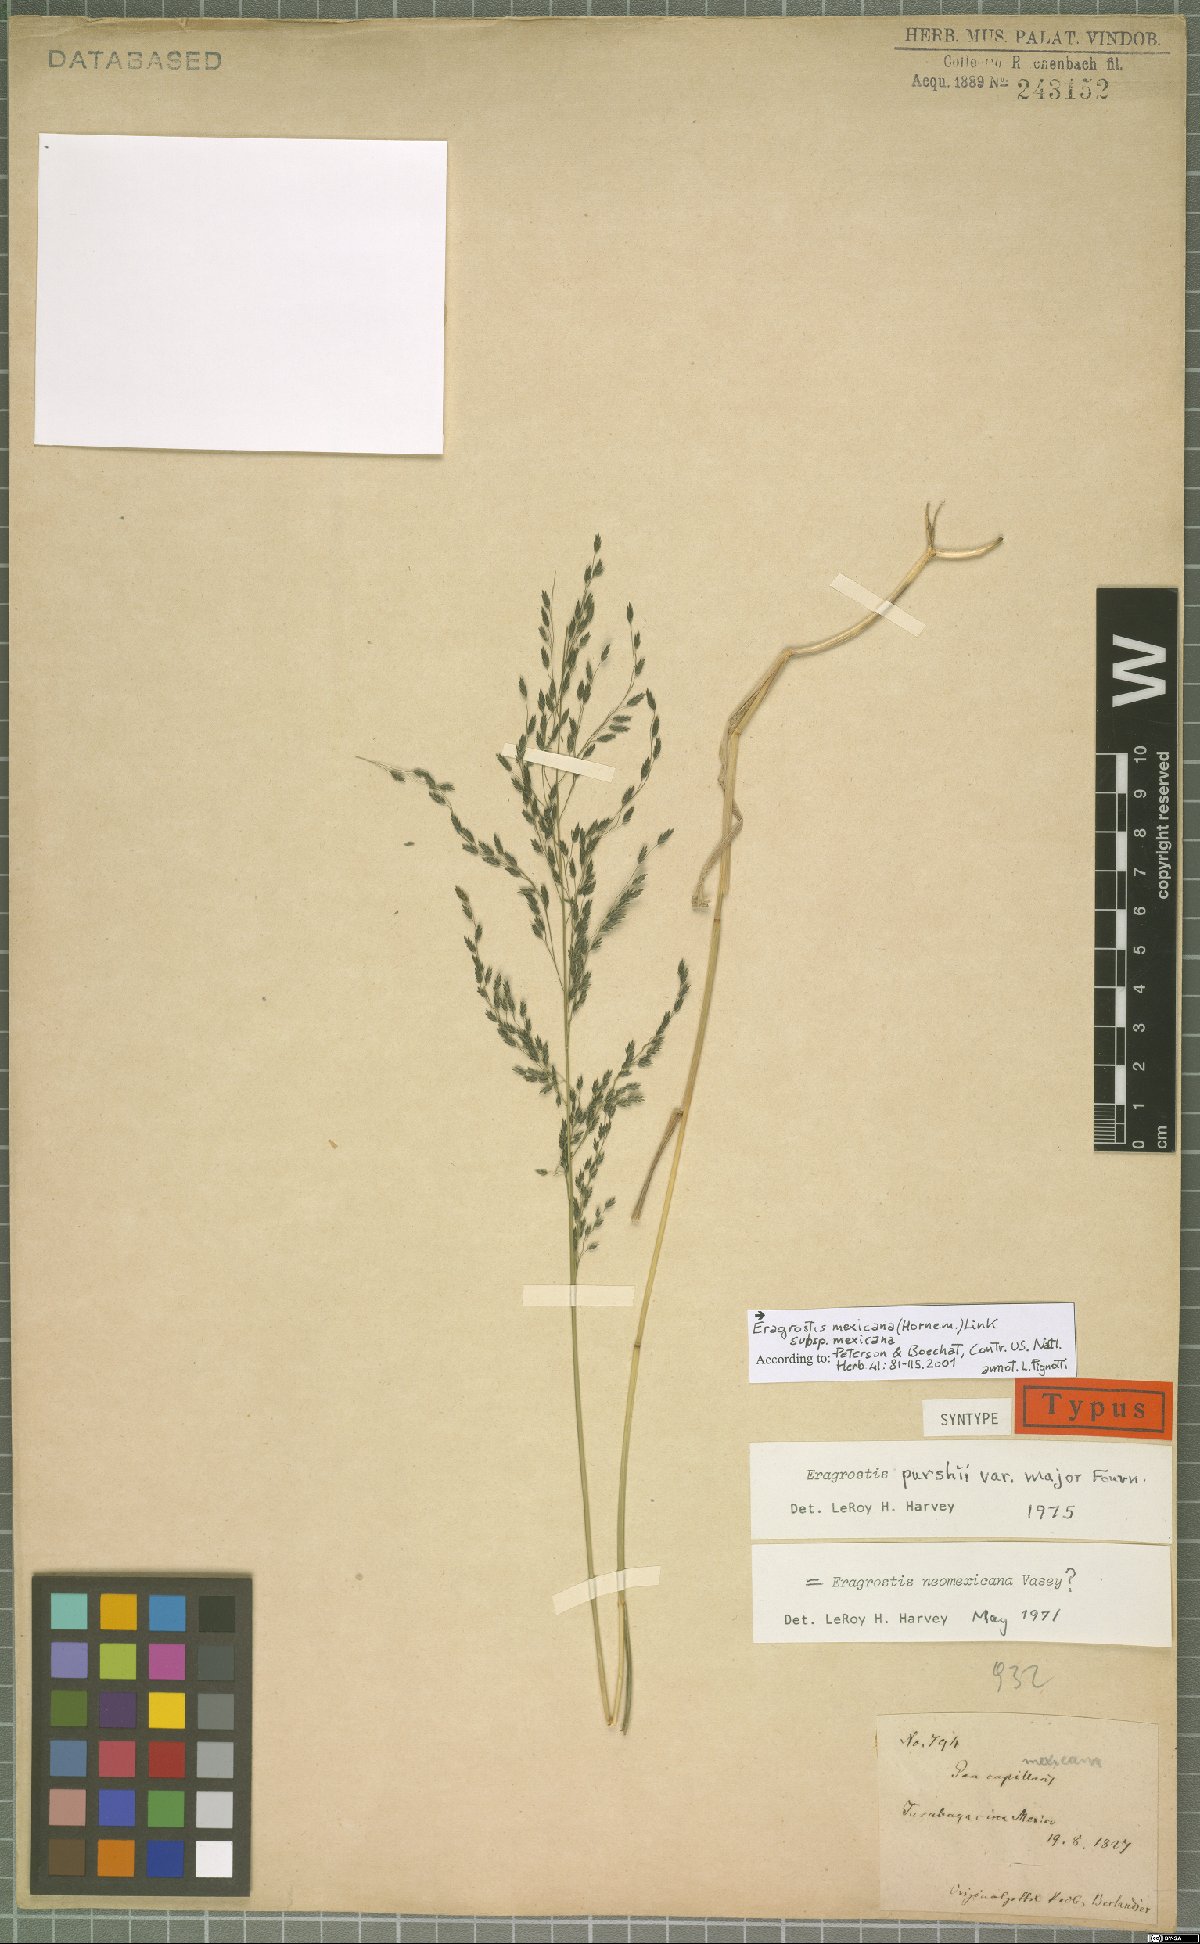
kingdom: Plantae
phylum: Tracheophyta
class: Liliopsida
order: Poales
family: Poaceae
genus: Eragrostis
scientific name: Eragrostis mexicana
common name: Mexican love grass
